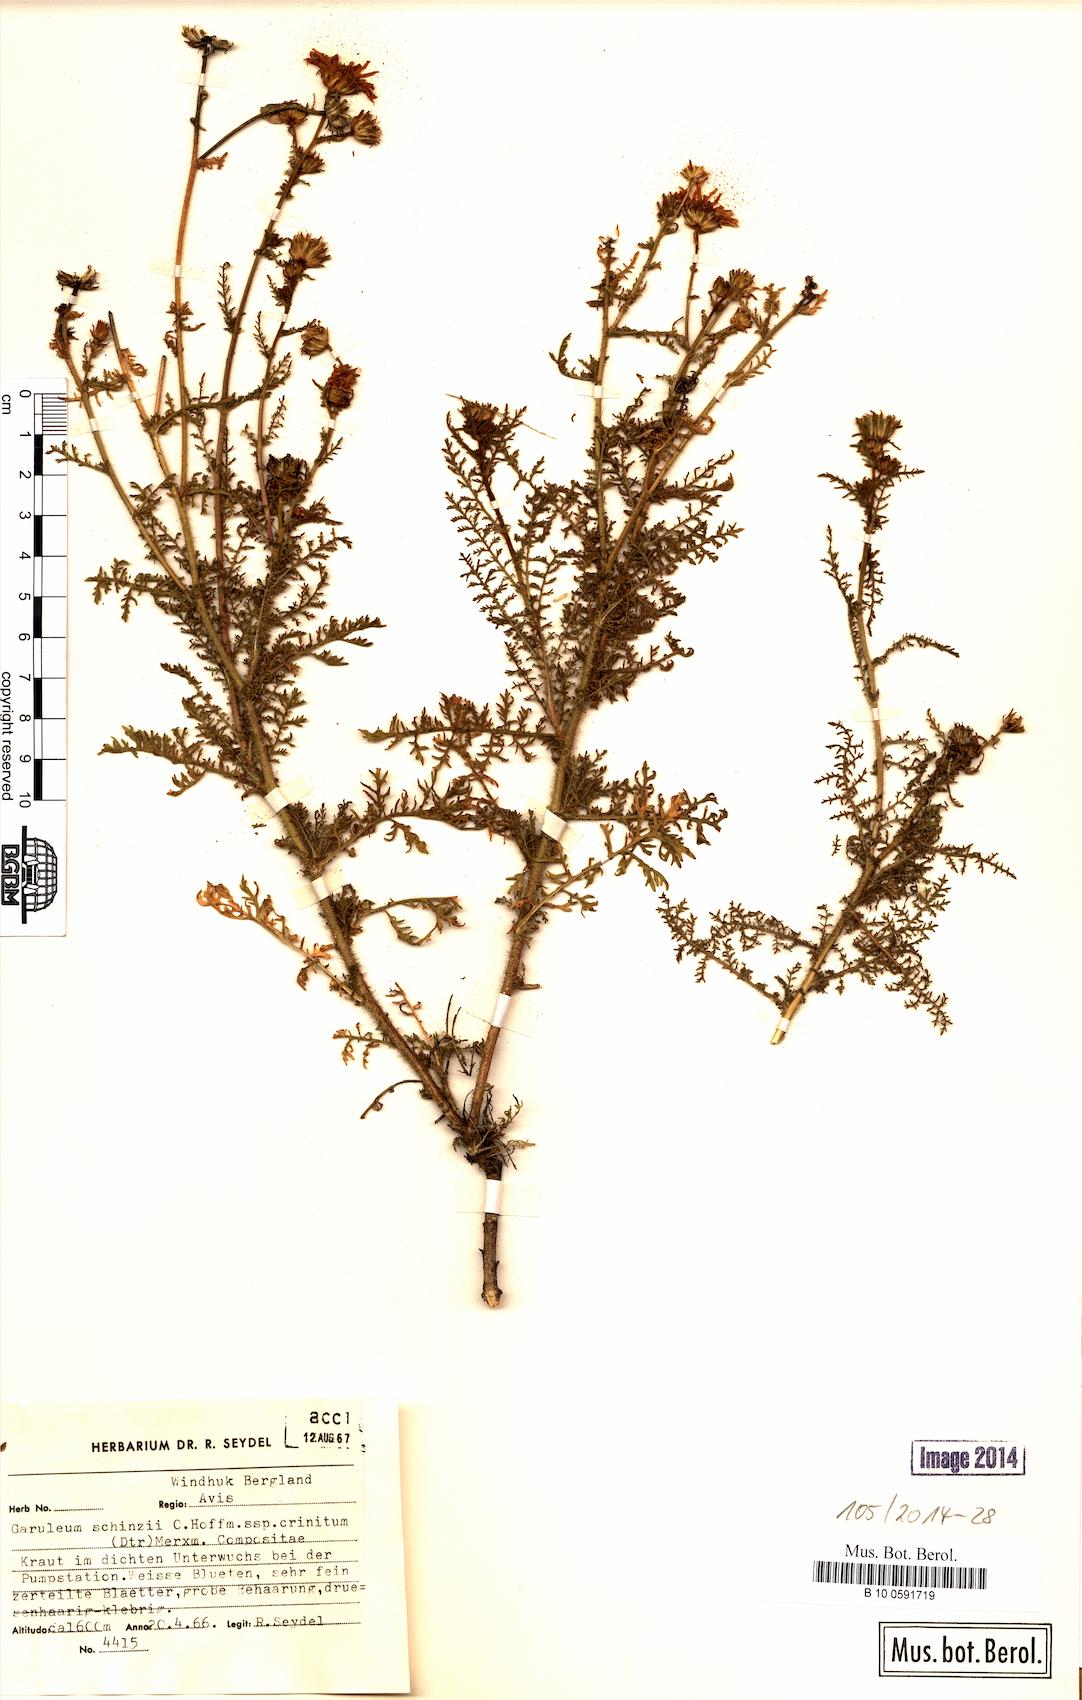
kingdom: Plantae
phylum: Tracheophyta
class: Magnoliopsida
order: Asterales
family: Asteraceae
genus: Garuleum
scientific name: Garuleum schinzii
